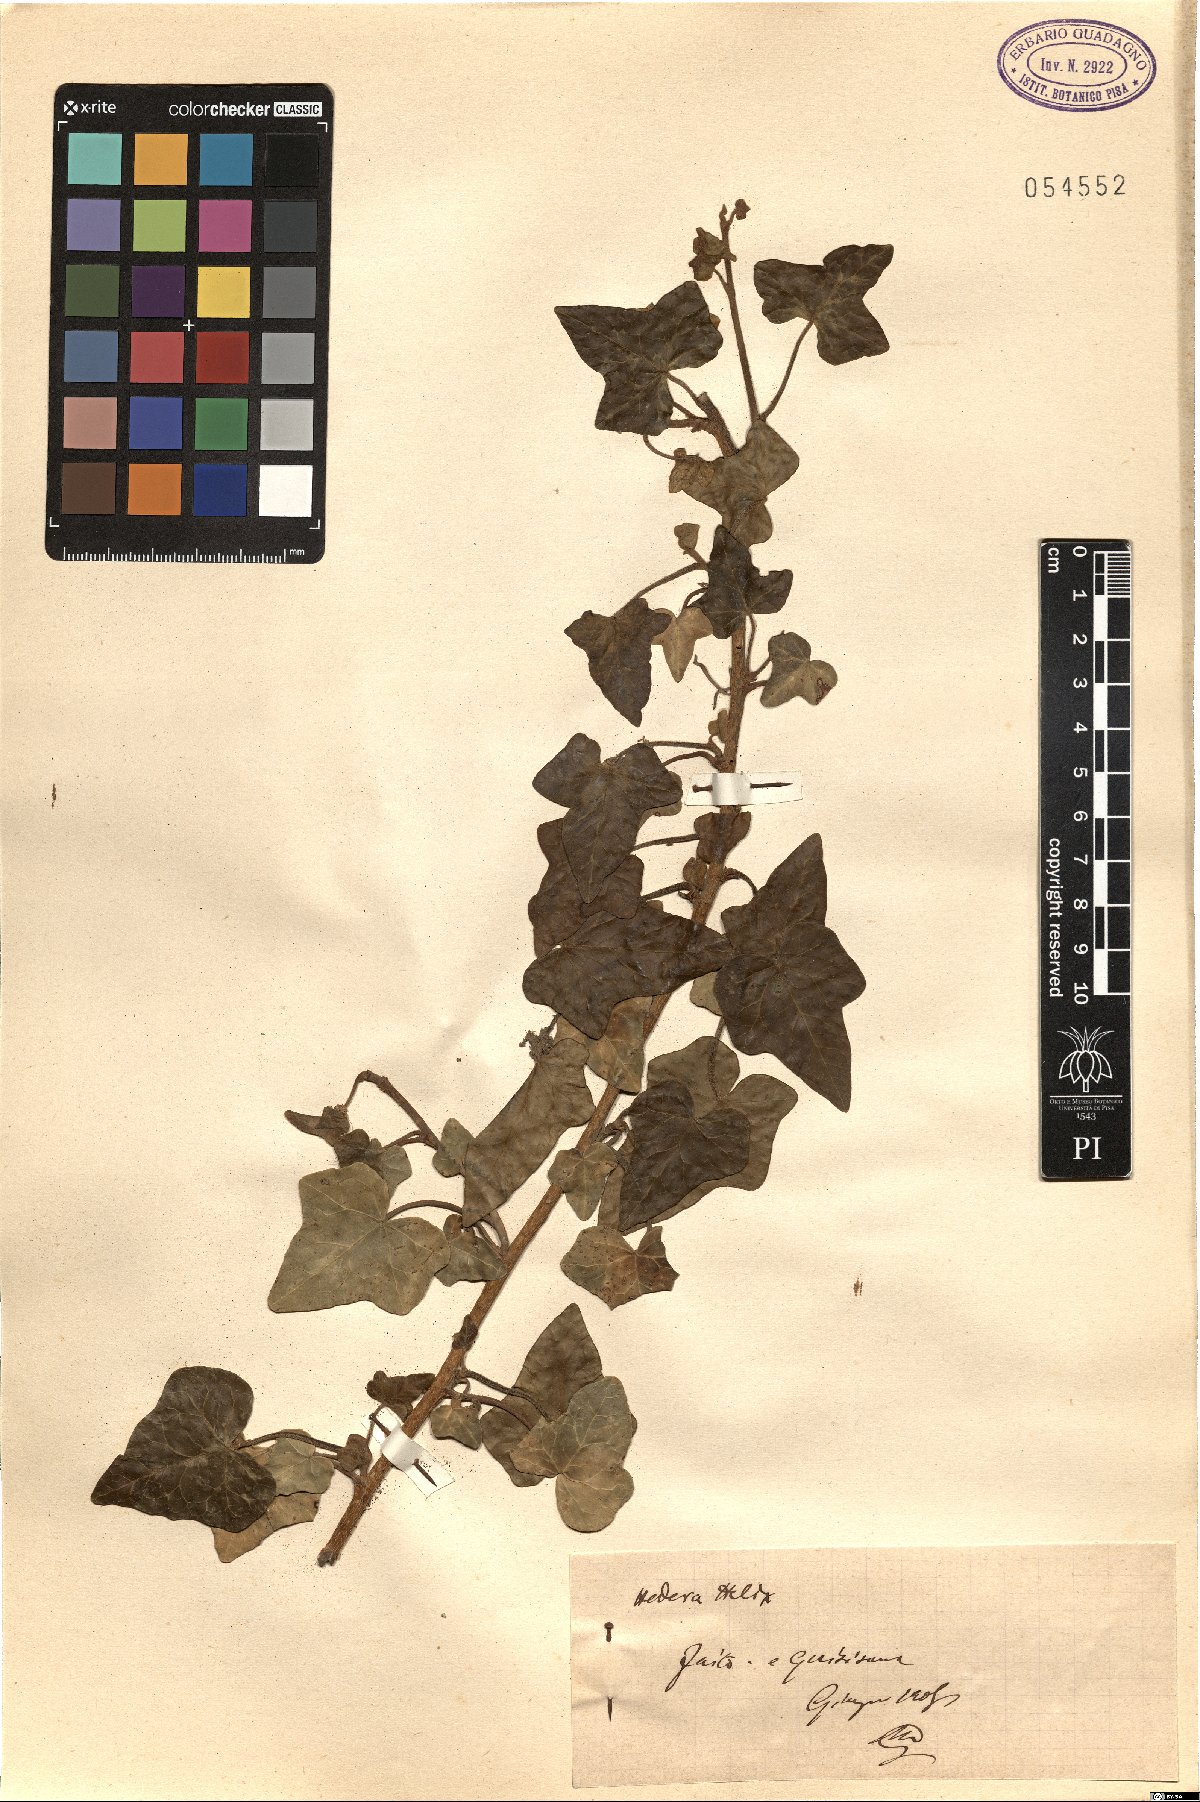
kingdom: Plantae
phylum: Tracheophyta
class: Magnoliopsida
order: Apiales
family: Araliaceae
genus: Hedera
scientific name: Hedera helix
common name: Ivy
